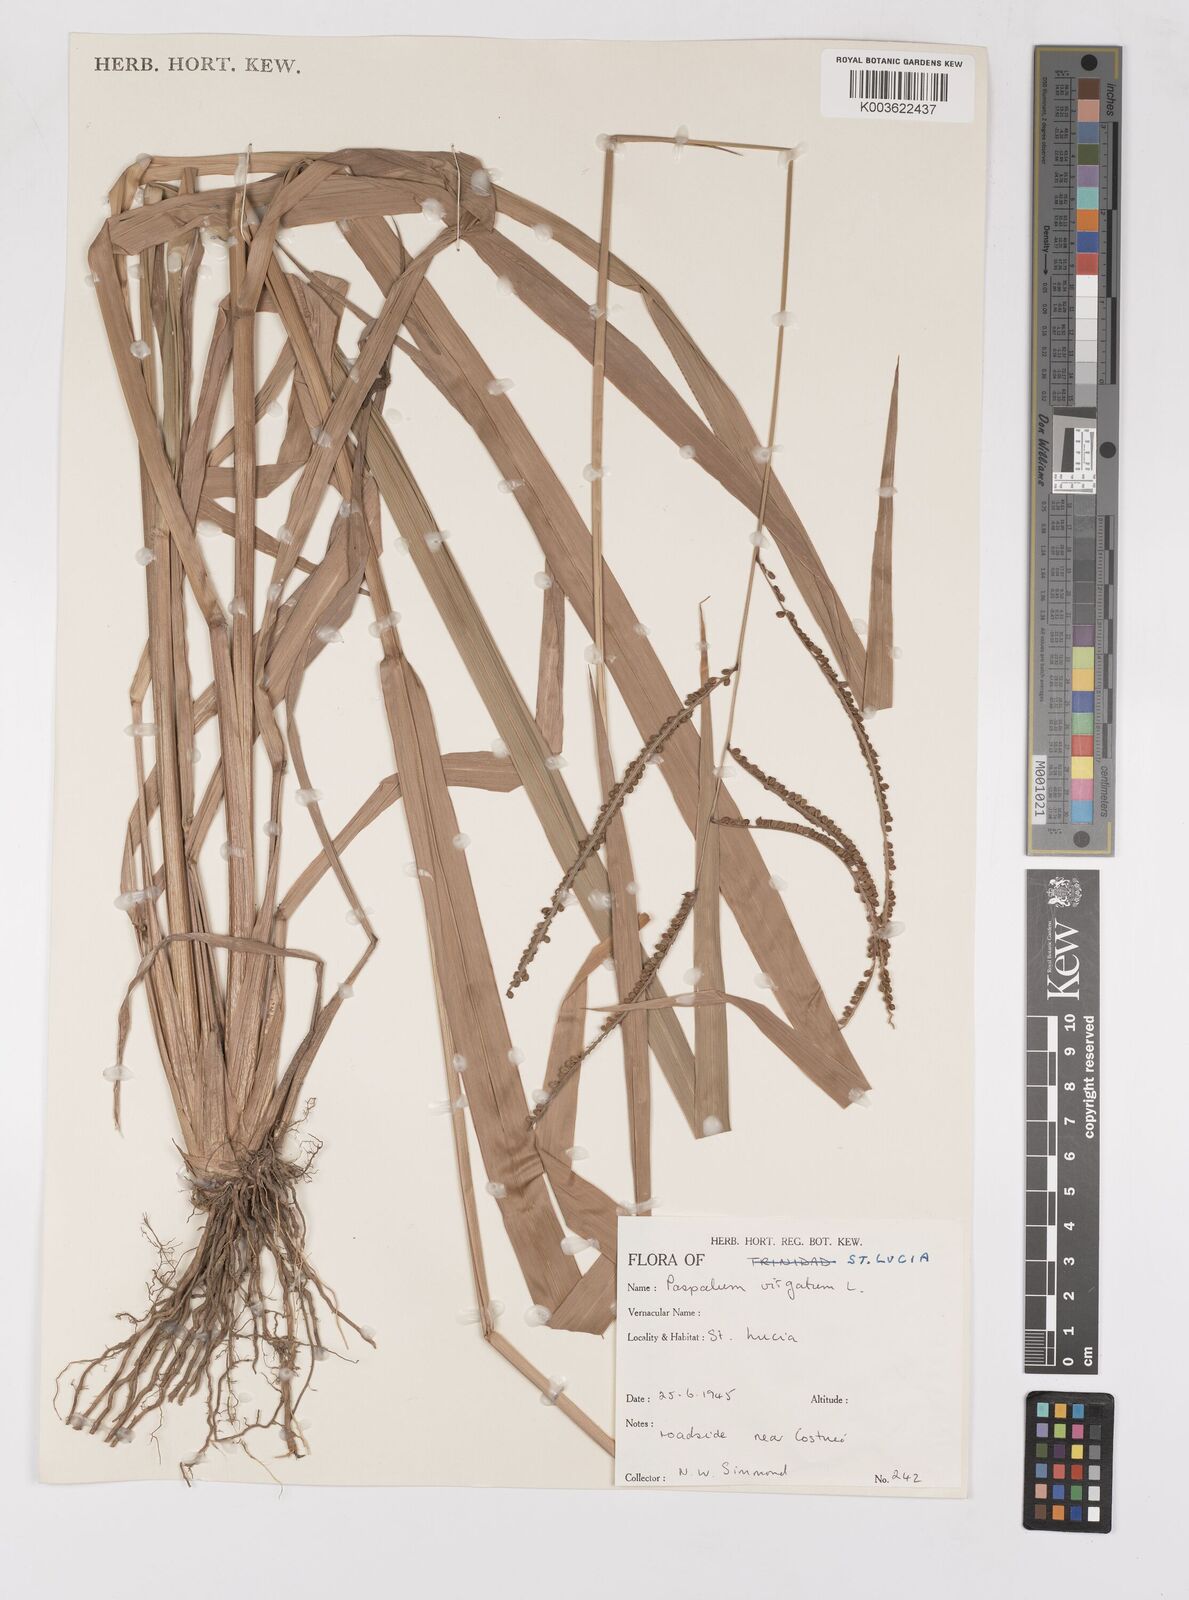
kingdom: Plantae
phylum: Tracheophyta
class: Liliopsida
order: Poales
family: Poaceae
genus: Paspalum
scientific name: Paspalum virgatum
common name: Talquezal
